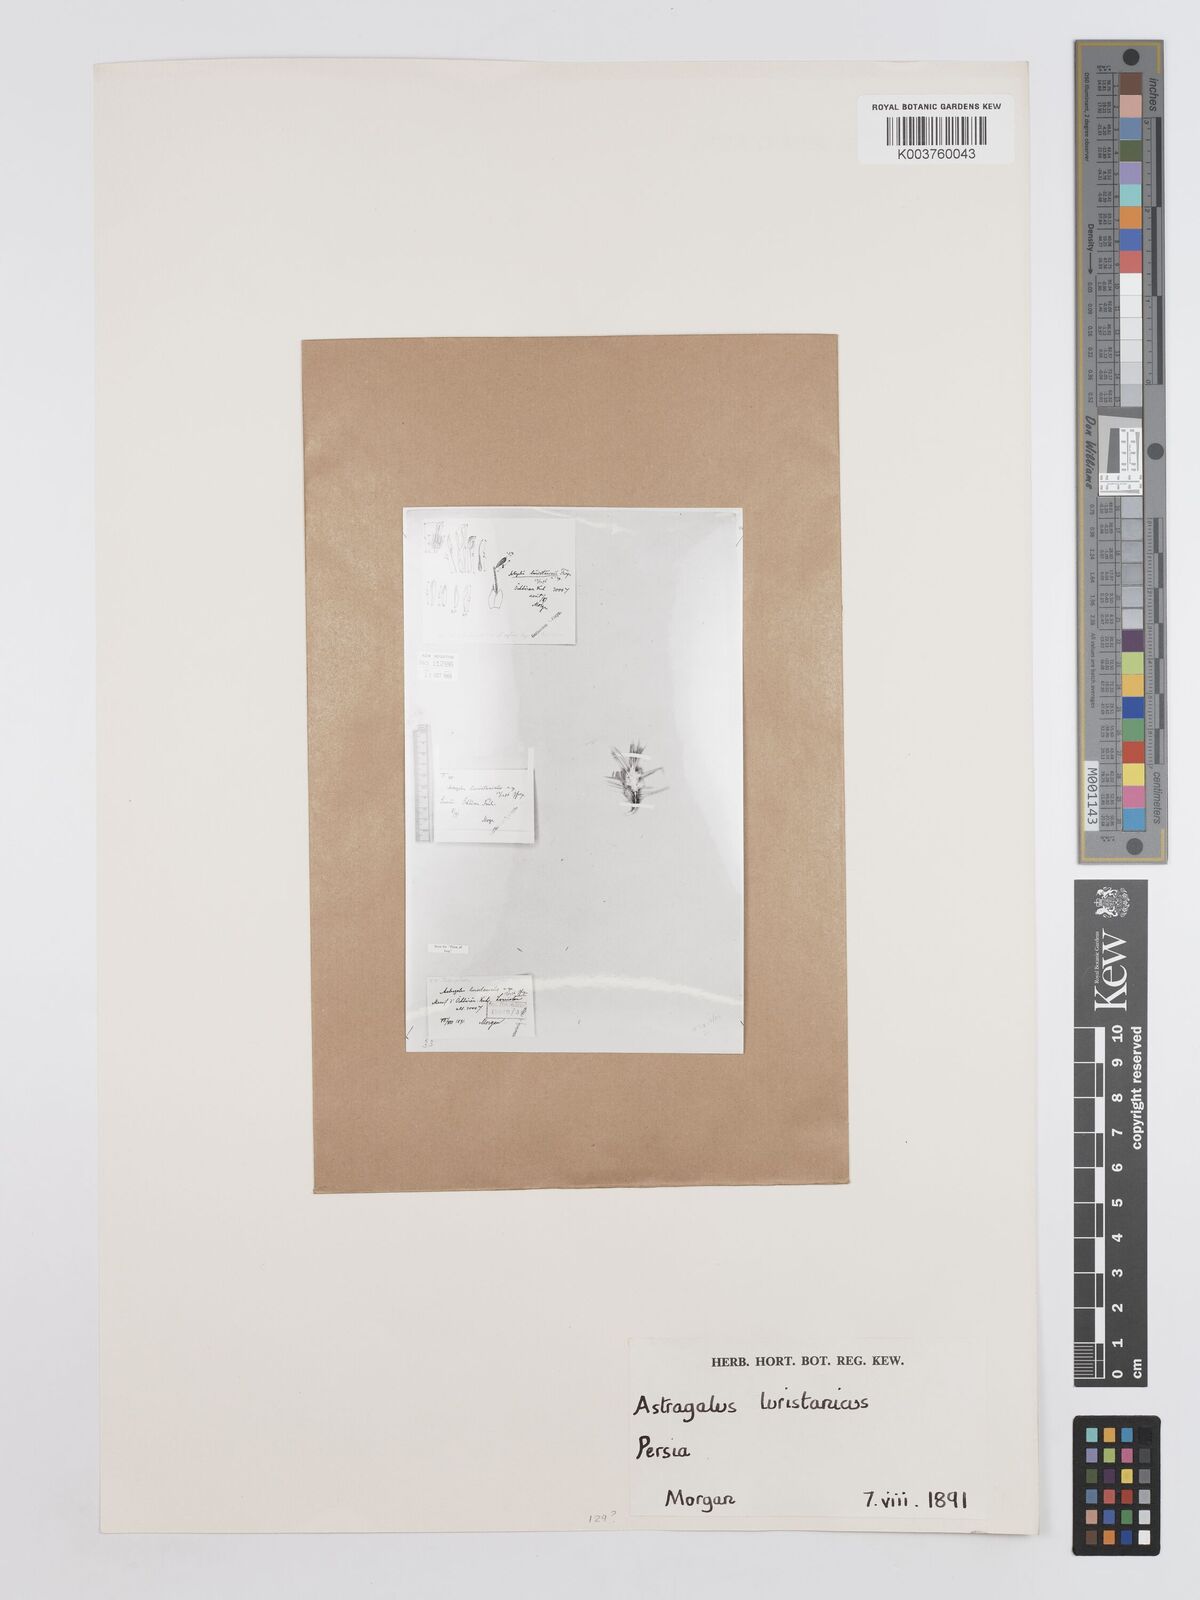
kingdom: Plantae
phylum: Tracheophyta
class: Magnoliopsida
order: Fabales
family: Fabaceae
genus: Astragalus
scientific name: Astragalus brachycalyx
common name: Persian manna
